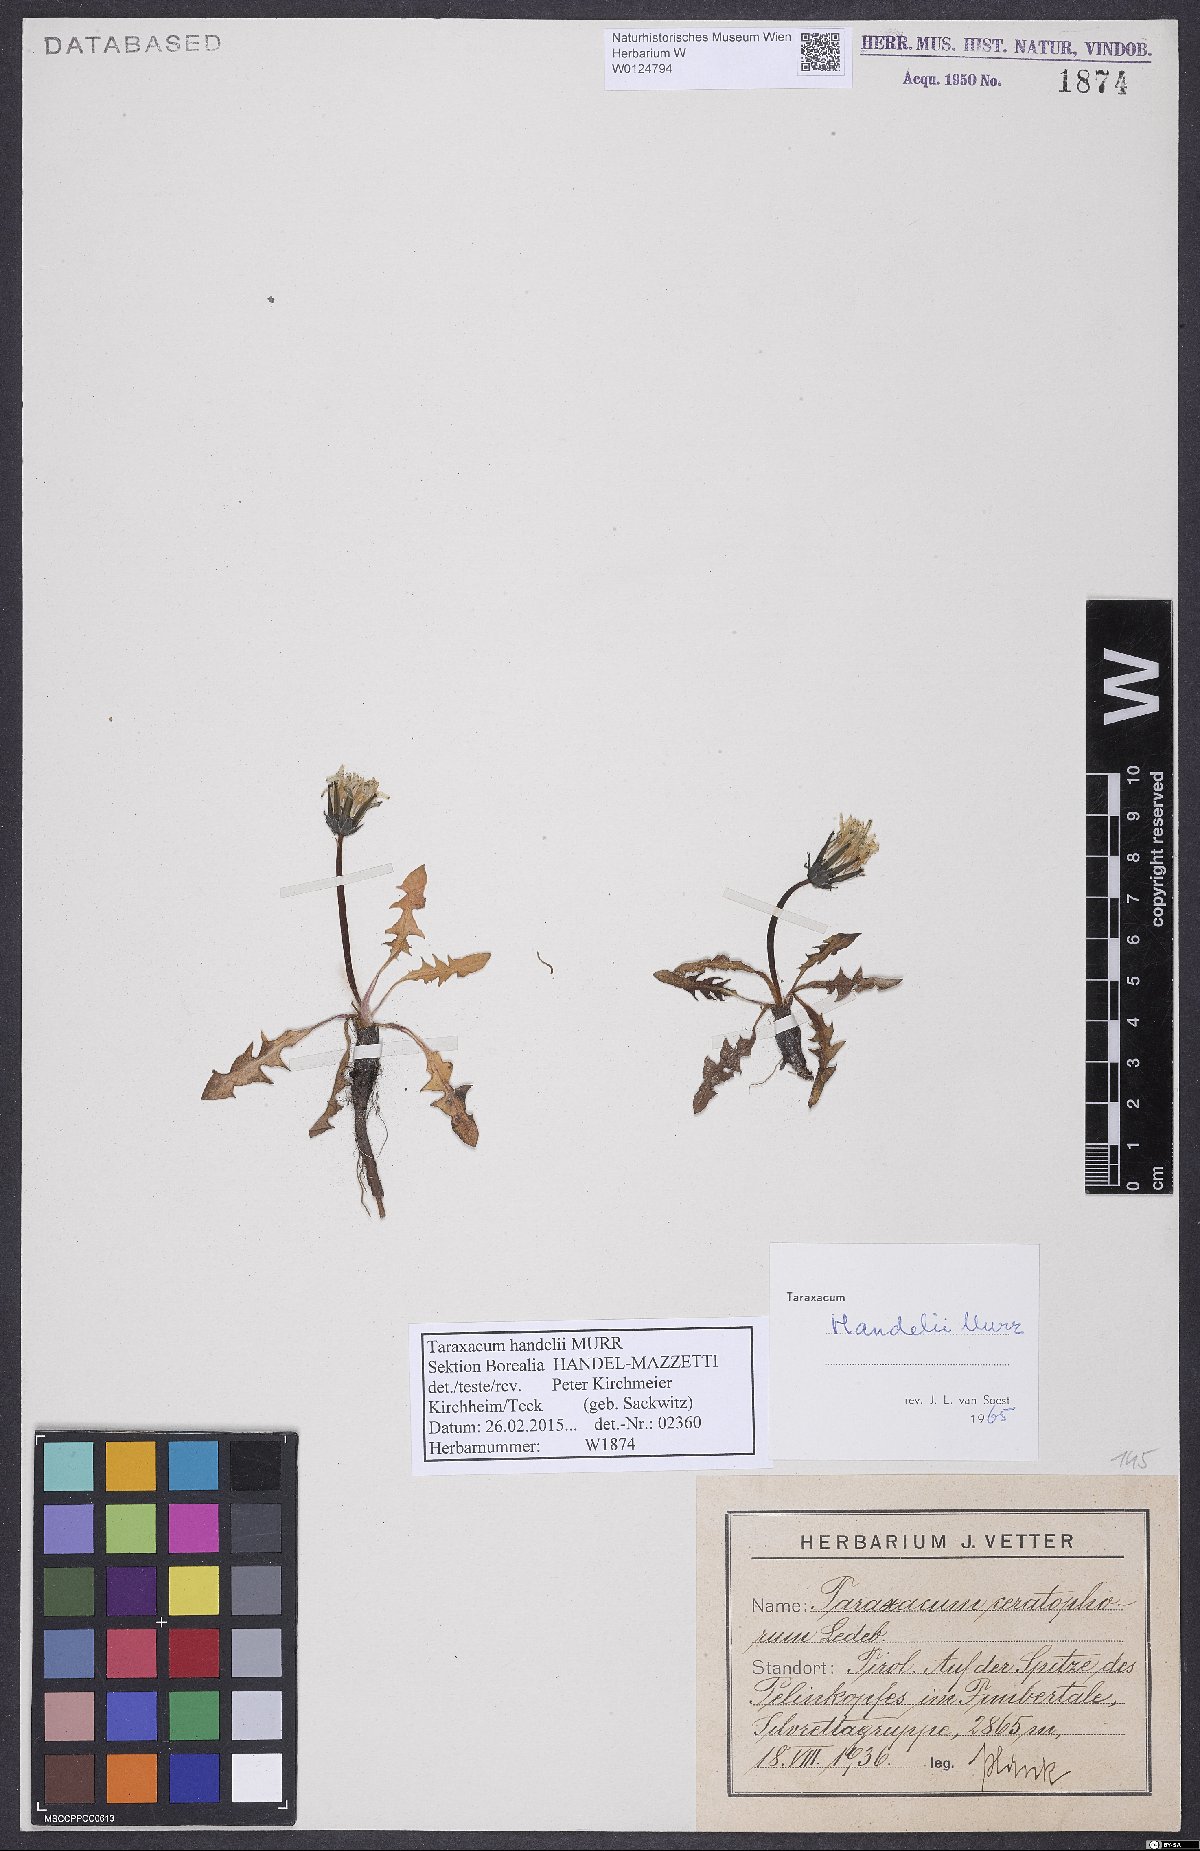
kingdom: Plantae
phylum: Tracheophyta
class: Magnoliopsida
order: Asterales
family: Asteraceae
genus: Taraxacum
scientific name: Taraxacum handelii
